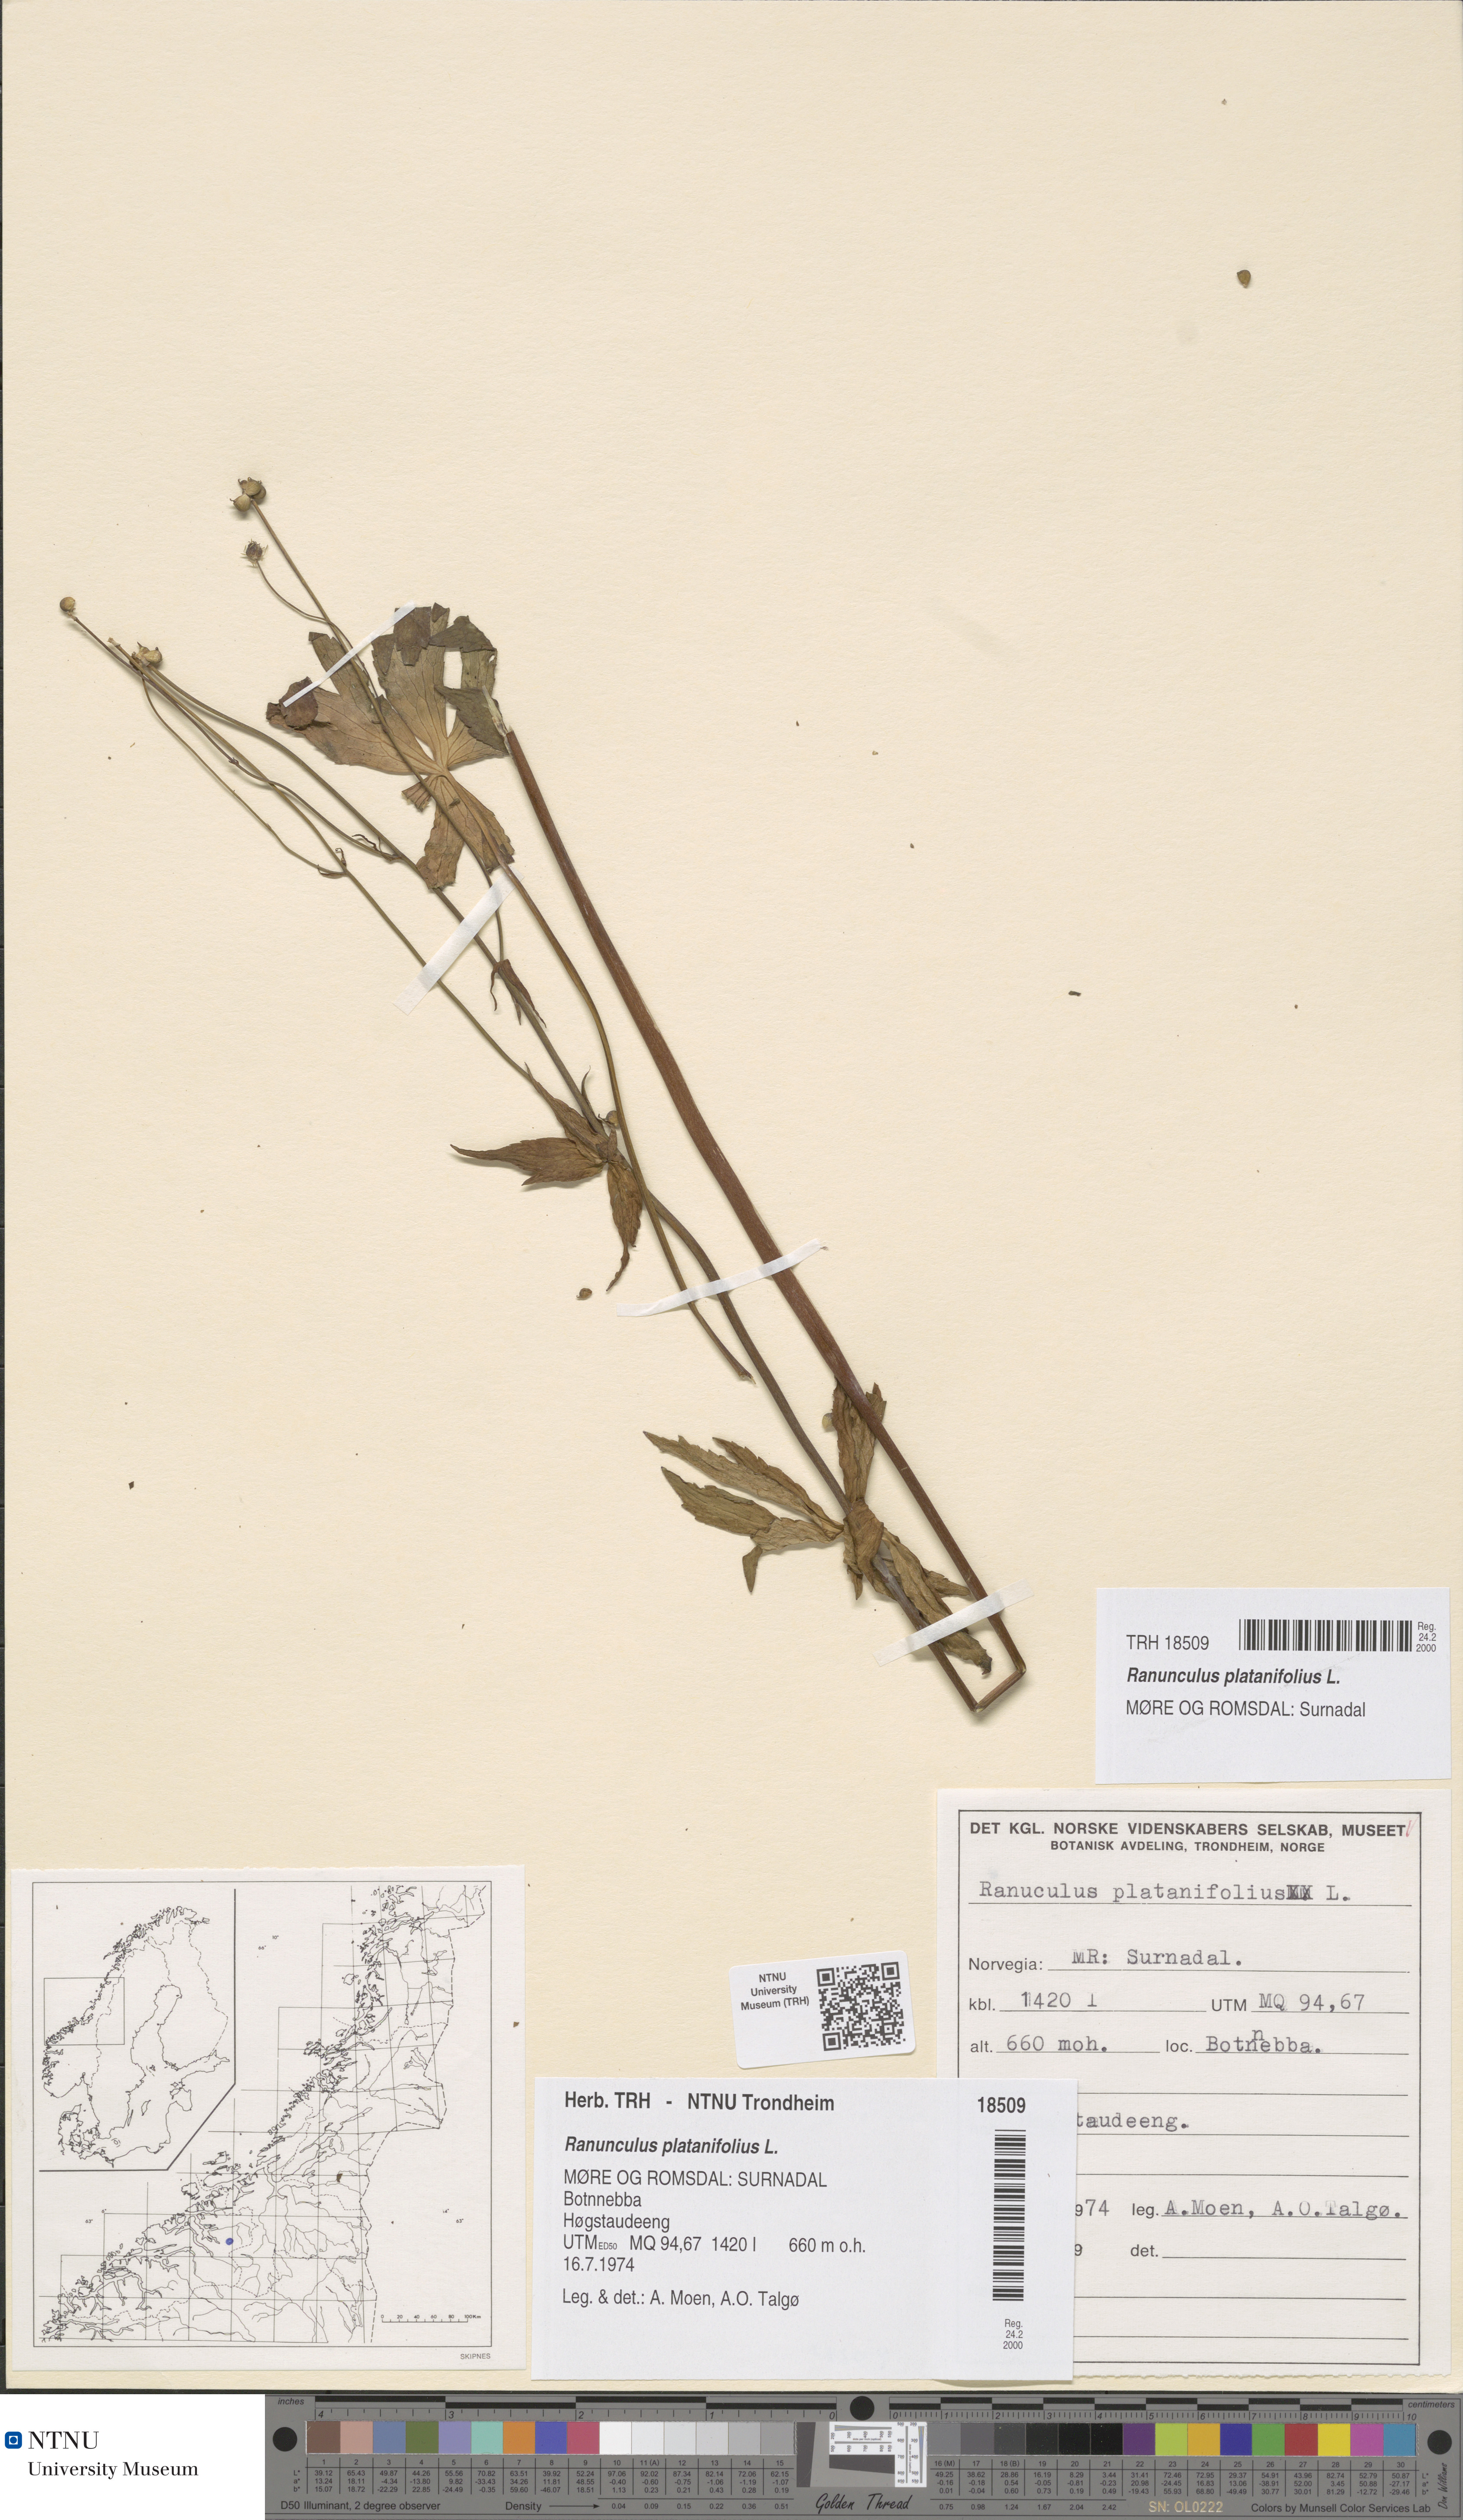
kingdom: Plantae
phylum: Tracheophyta
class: Magnoliopsida
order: Ranunculales
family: Ranunculaceae
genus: Ranunculus
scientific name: Ranunculus platanifolius
